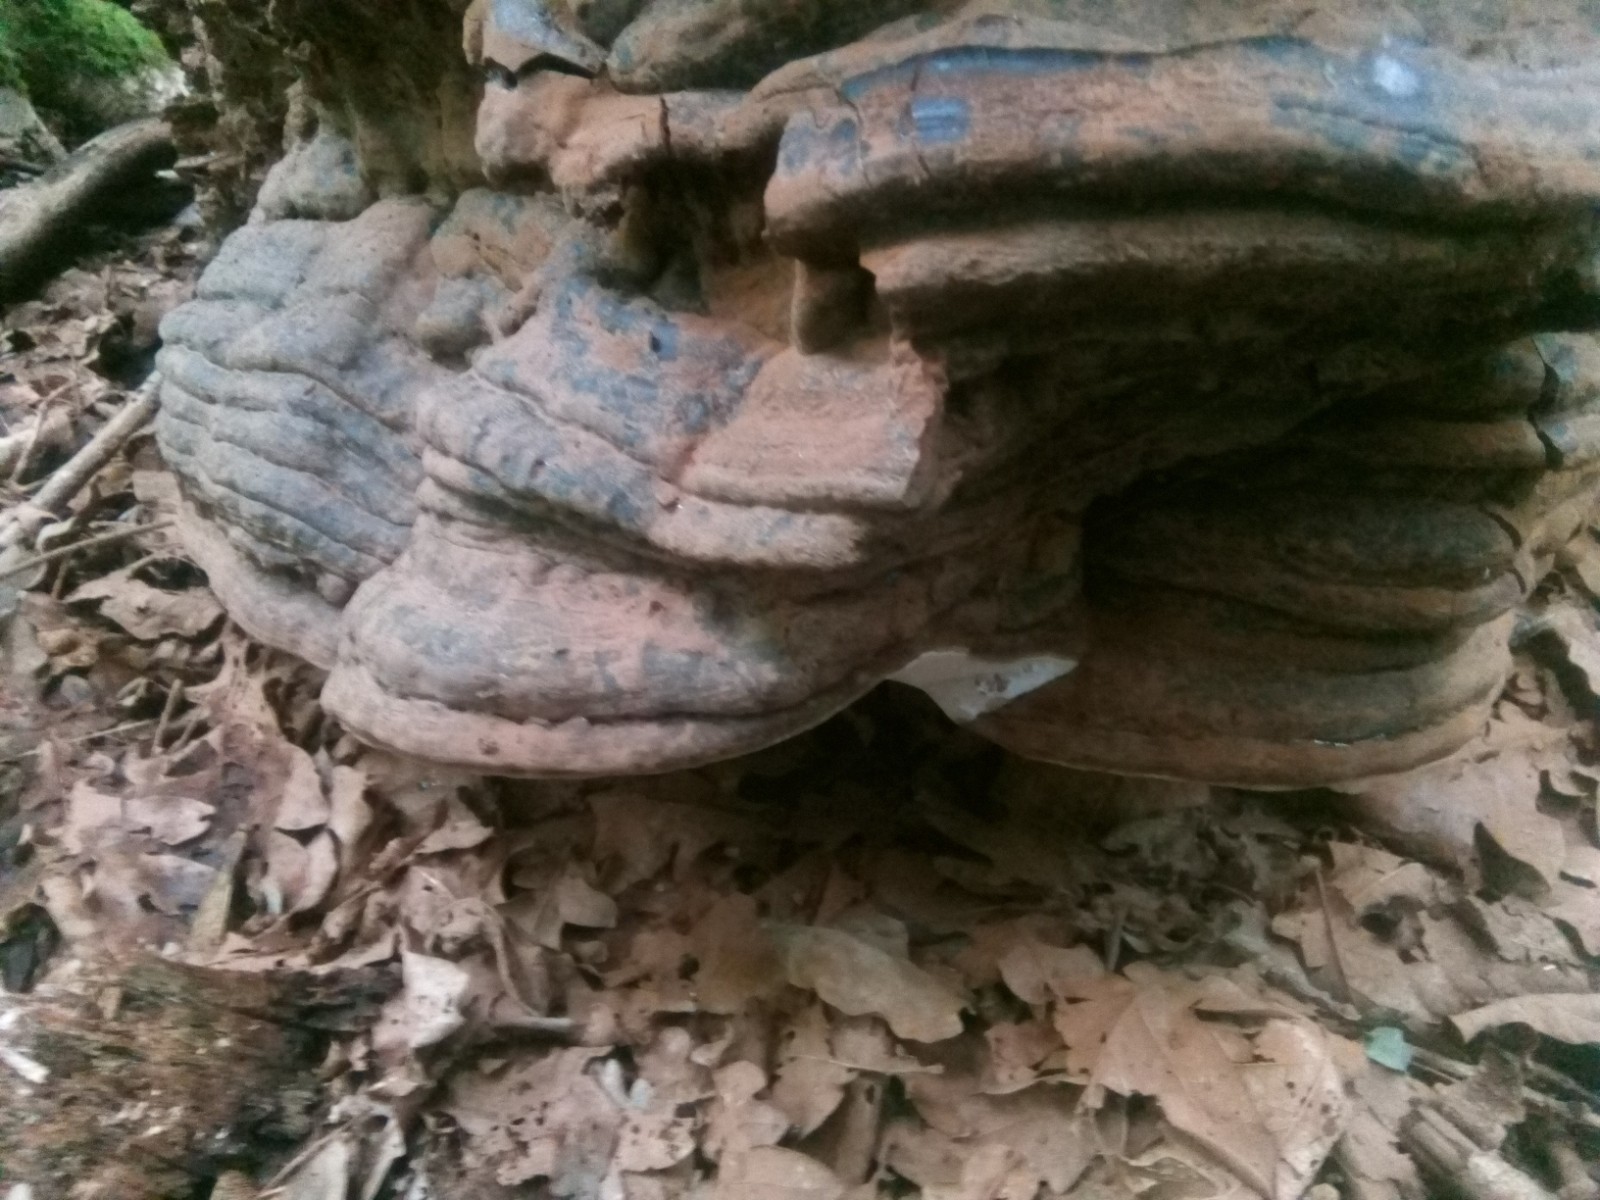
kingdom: Fungi
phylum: Basidiomycota
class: Agaricomycetes
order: Polyporales
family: Polyporaceae
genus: Ganoderma
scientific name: Ganoderma pfeifferi
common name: kobberrød lakporesvamp
